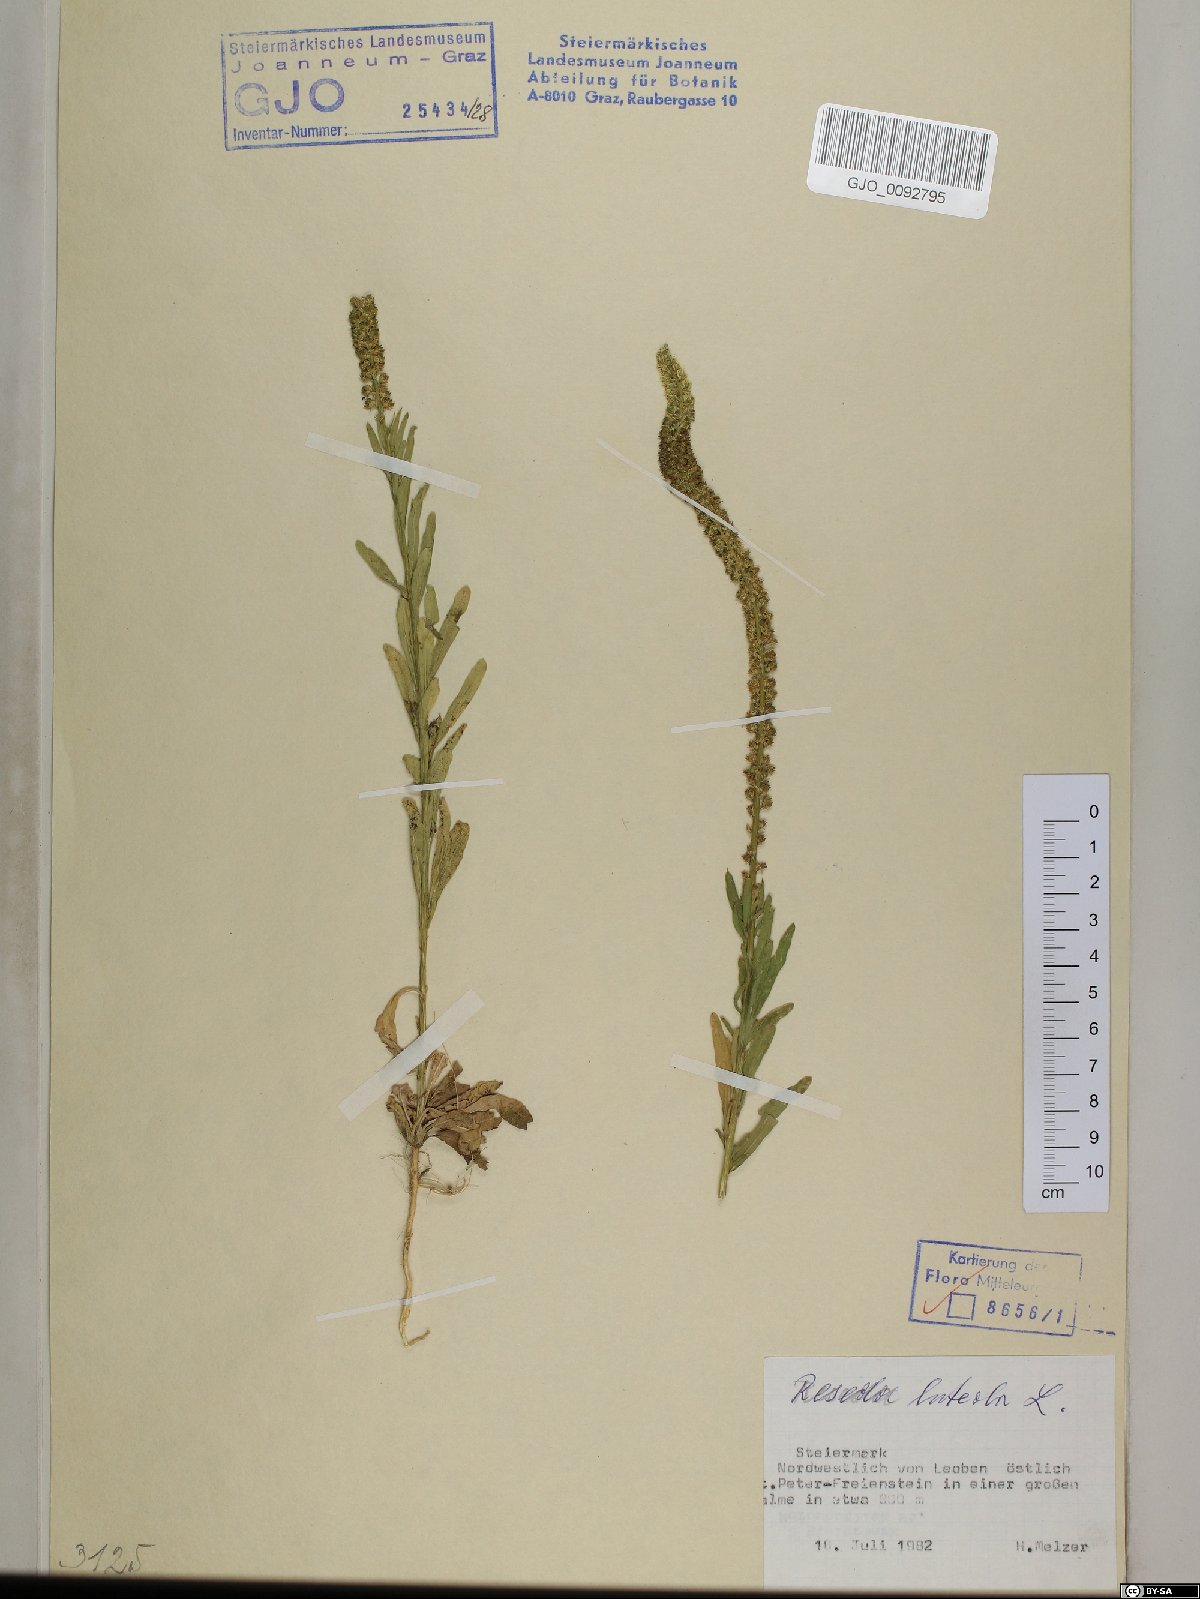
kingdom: Plantae
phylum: Tracheophyta
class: Magnoliopsida
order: Brassicales
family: Resedaceae
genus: Reseda
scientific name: Reseda luteola
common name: Weld
